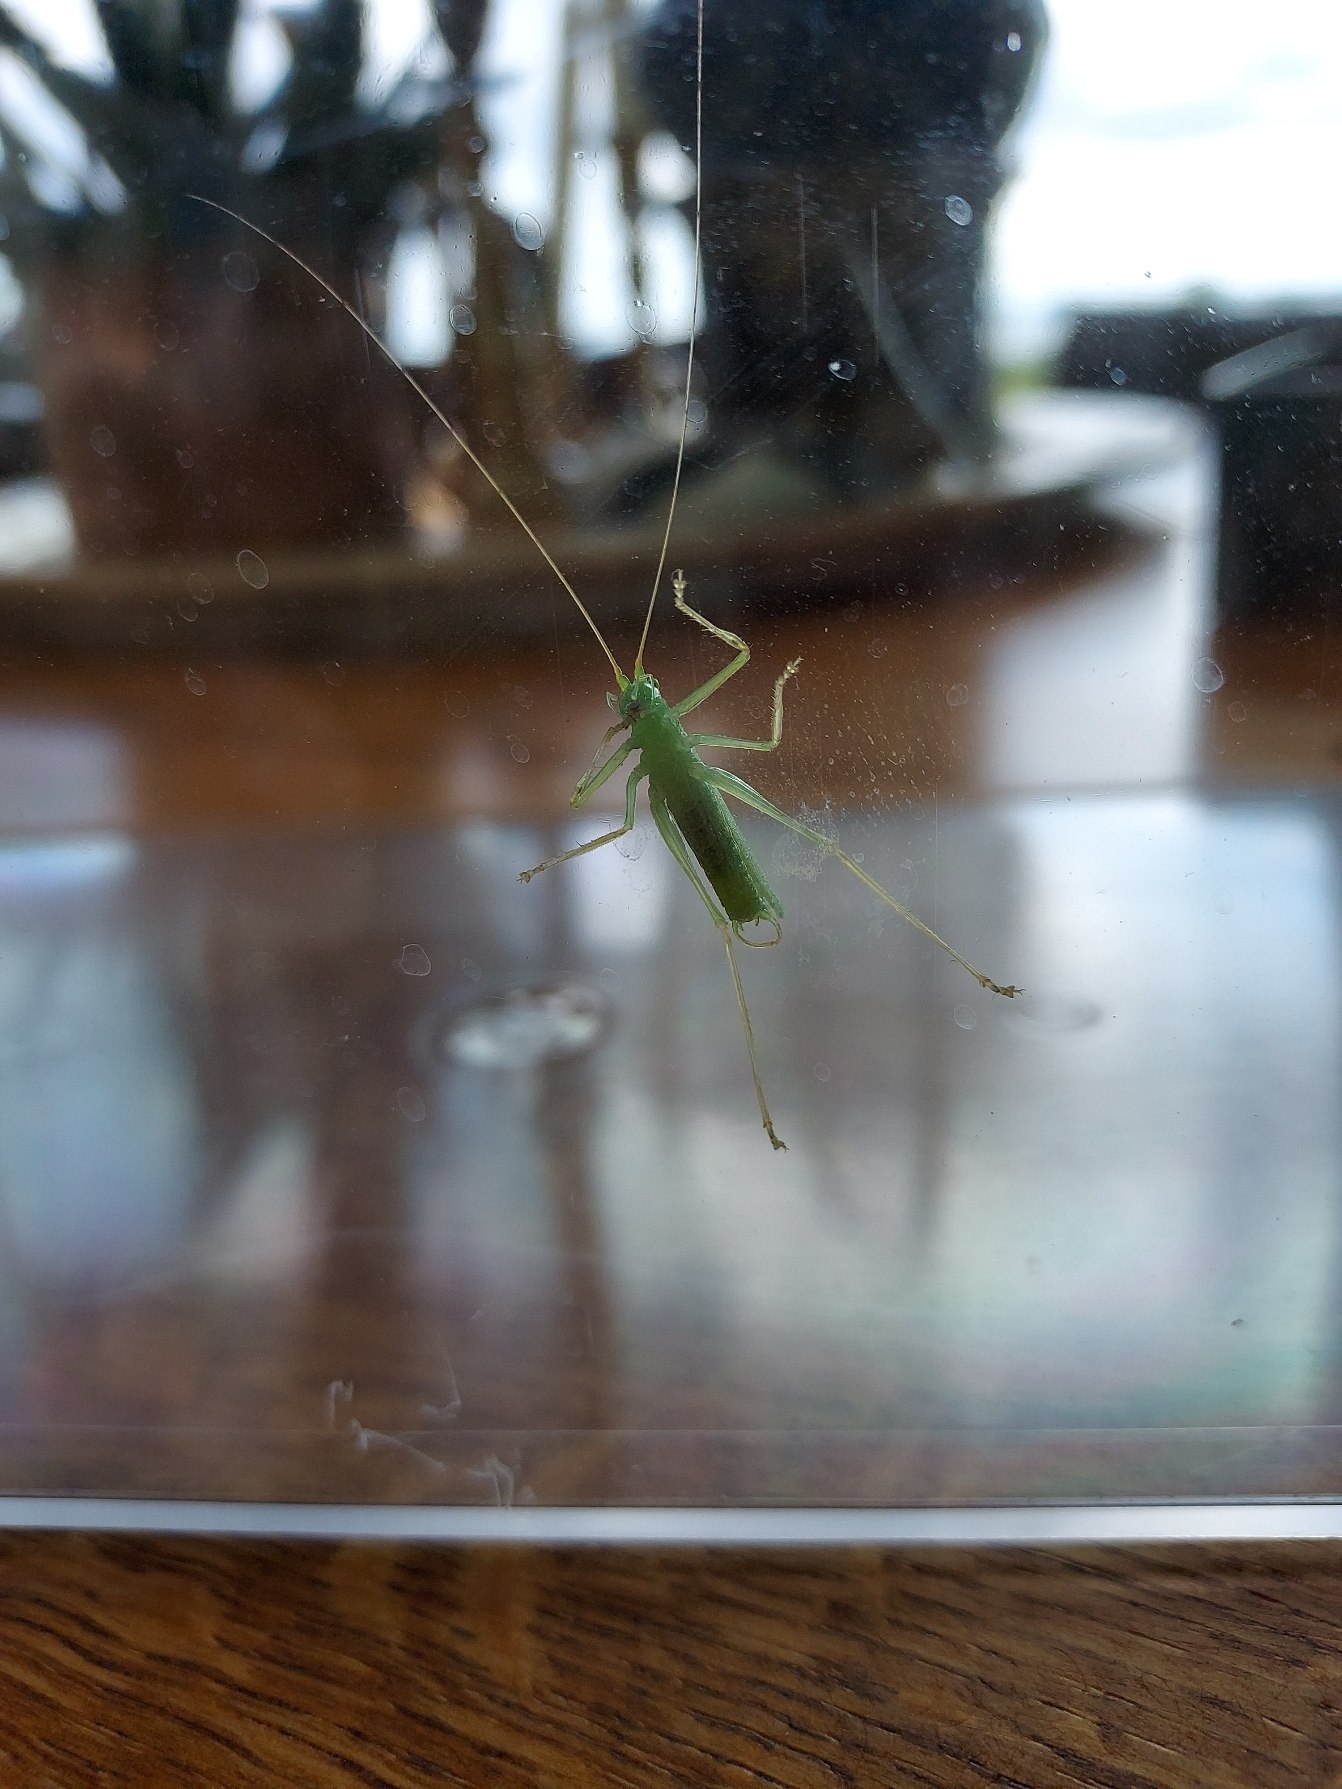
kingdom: Animalia
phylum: Arthropoda
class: Insecta
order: Orthoptera
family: Tettigoniidae
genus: Meconema
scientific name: Meconema thalassinum
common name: Egegræshoppe
